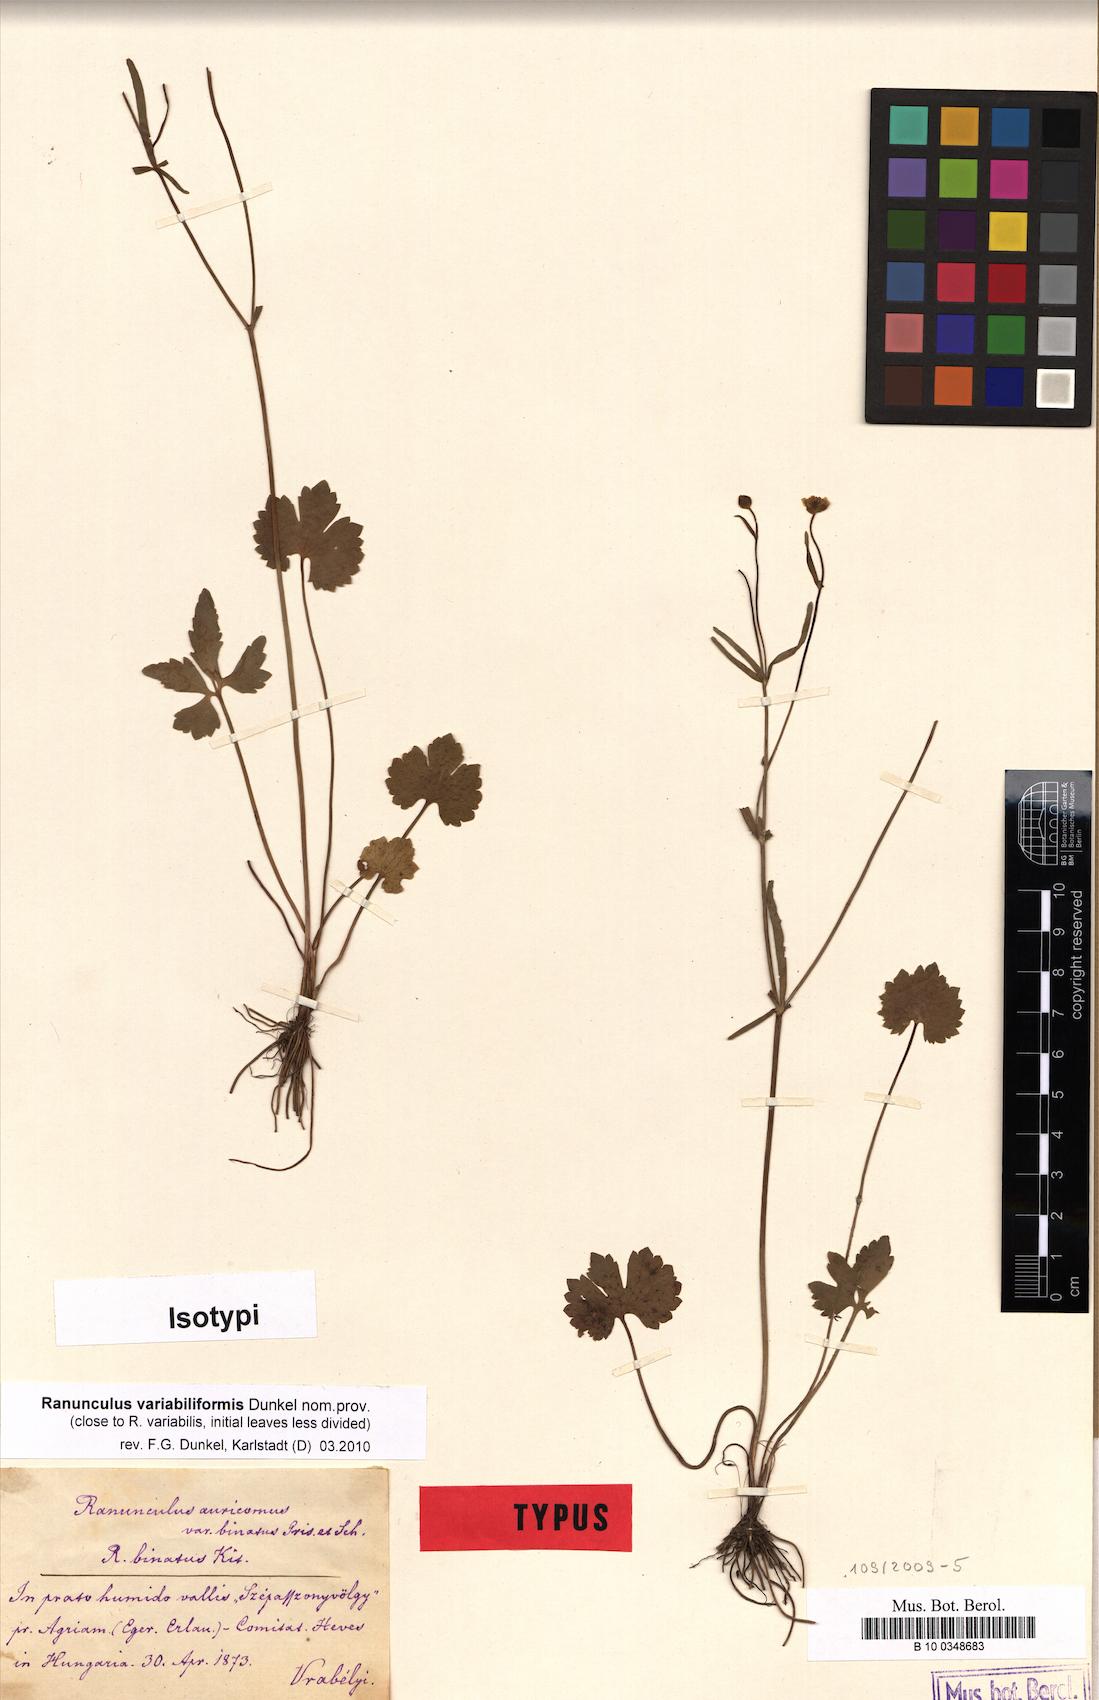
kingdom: Plantae
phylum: Tracheophyta
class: Magnoliopsida
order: Ranunculales
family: Ranunculaceae
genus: Ranunculus
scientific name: Ranunculus
